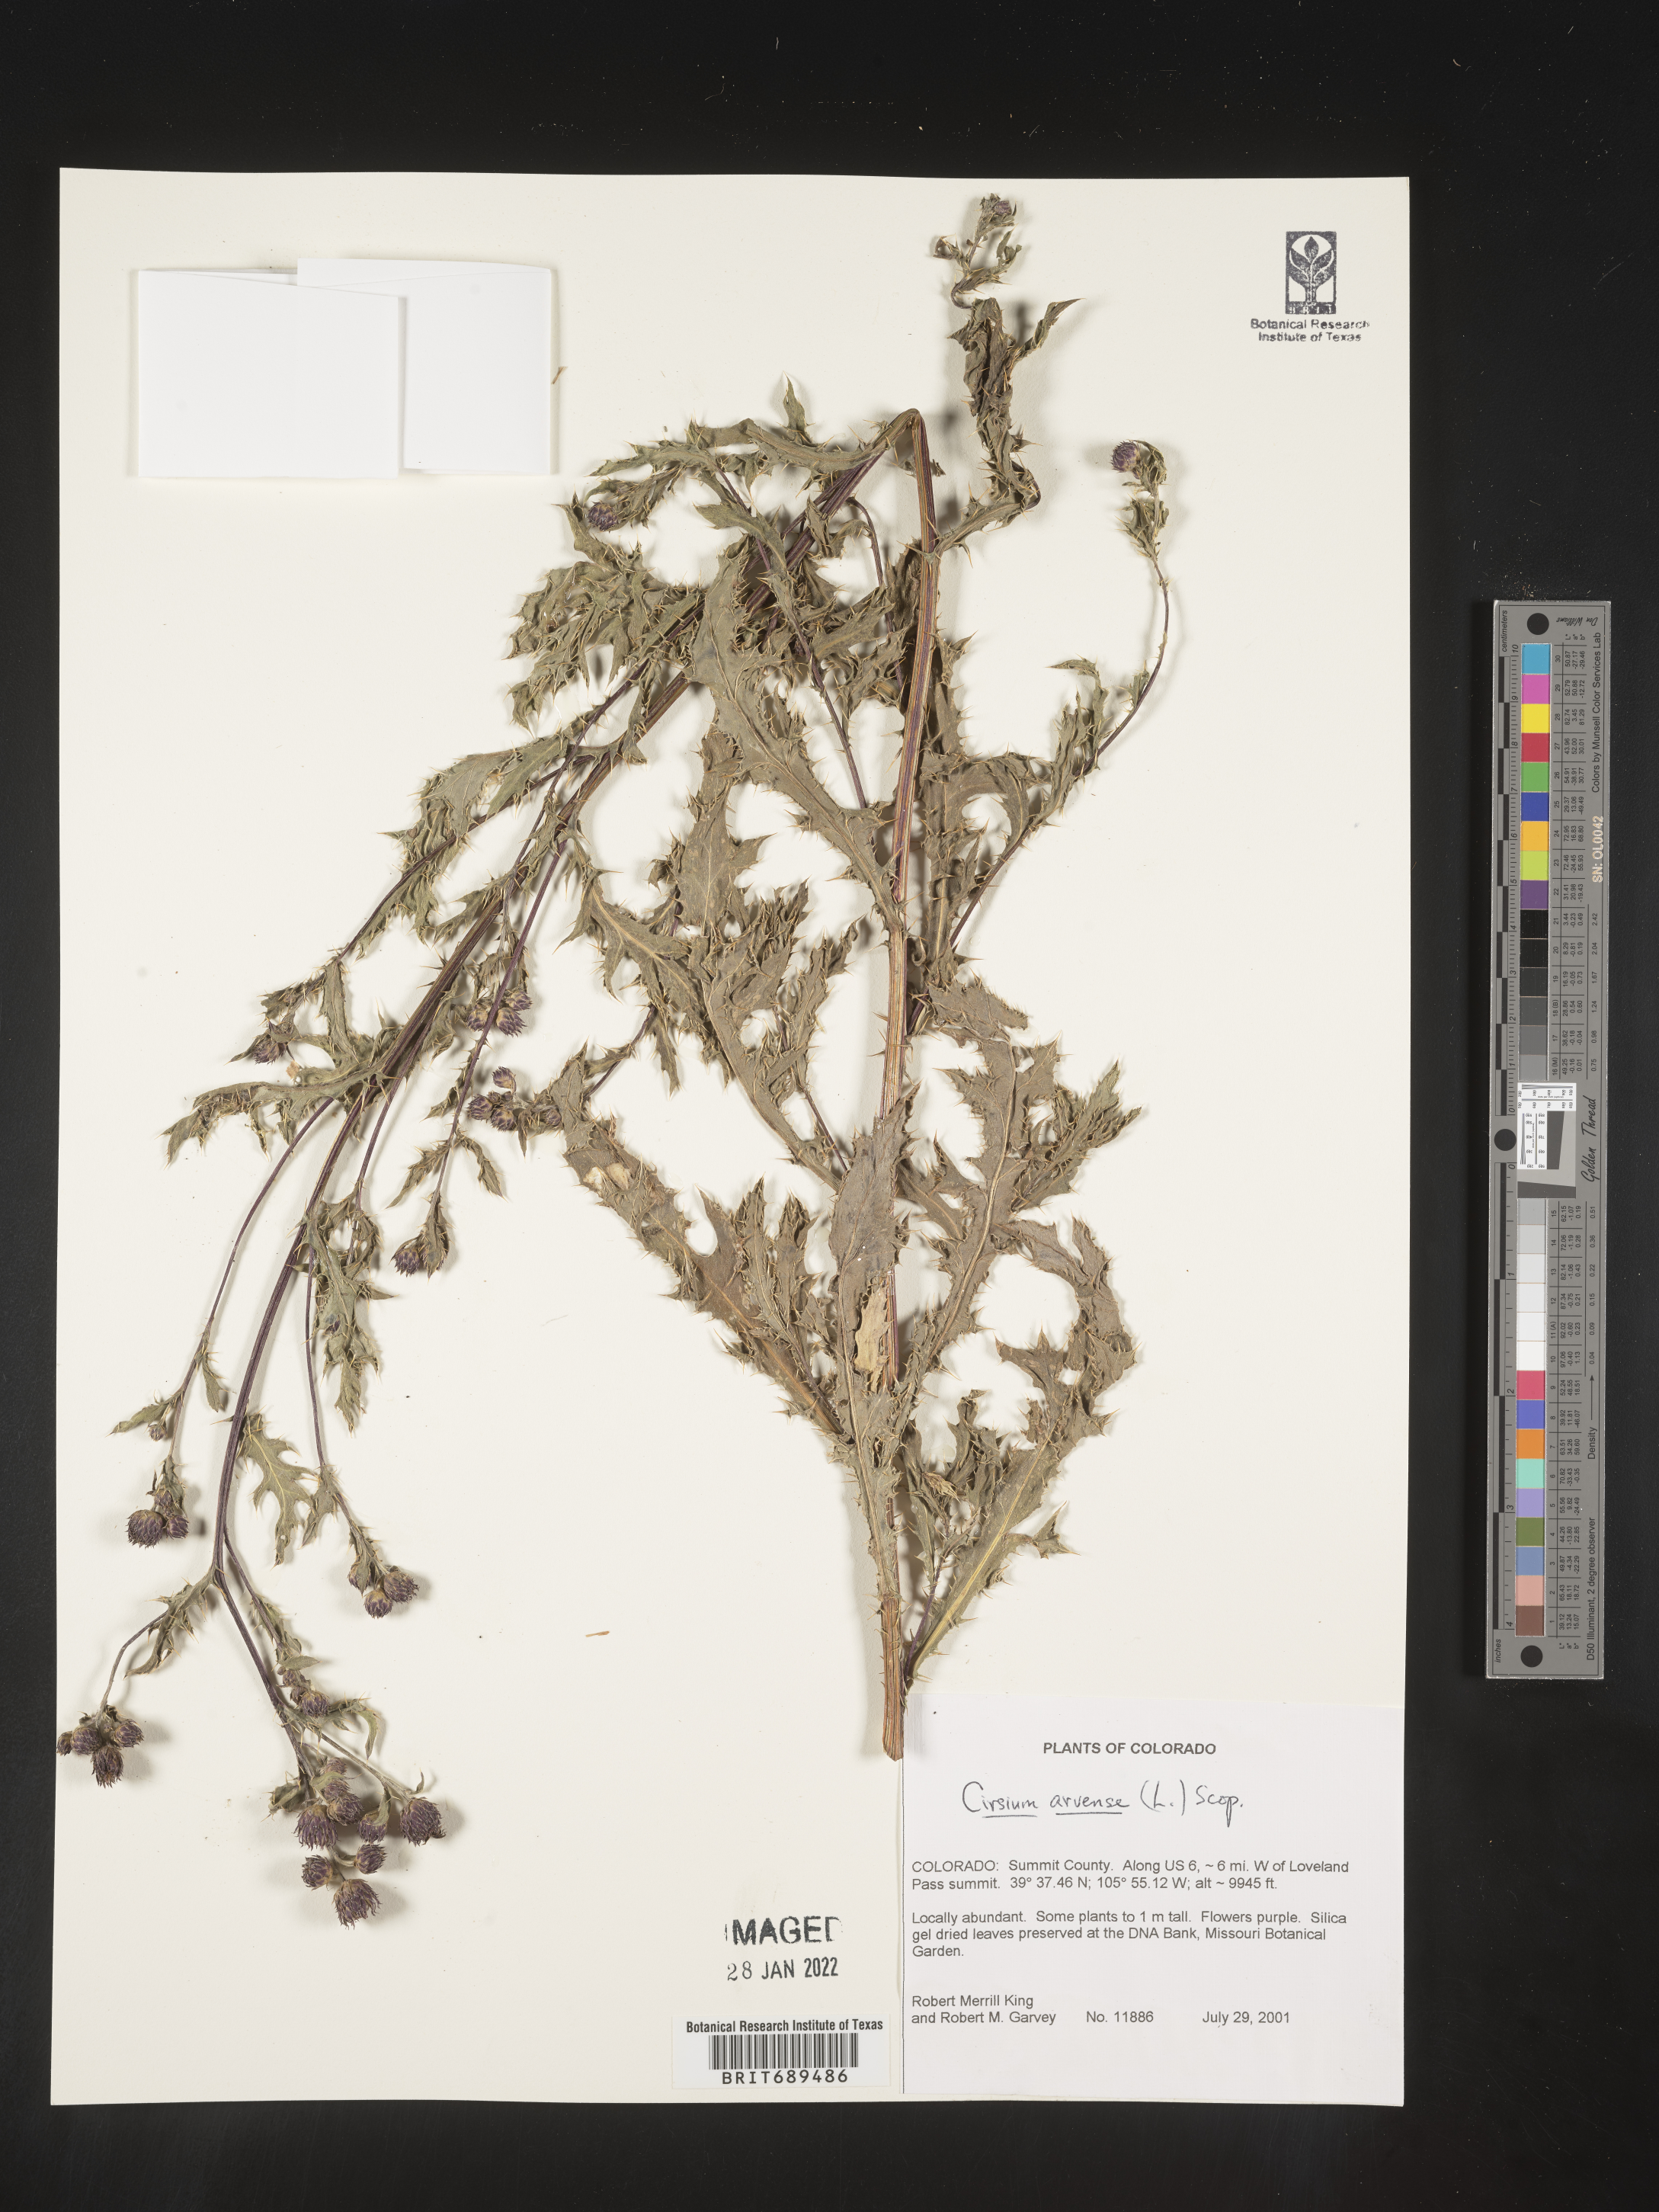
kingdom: Plantae
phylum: Tracheophyta
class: Magnoliopsida
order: Asterales
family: Asteraceae
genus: Cirsium
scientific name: Cirsium arvense
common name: Creeping thistle
